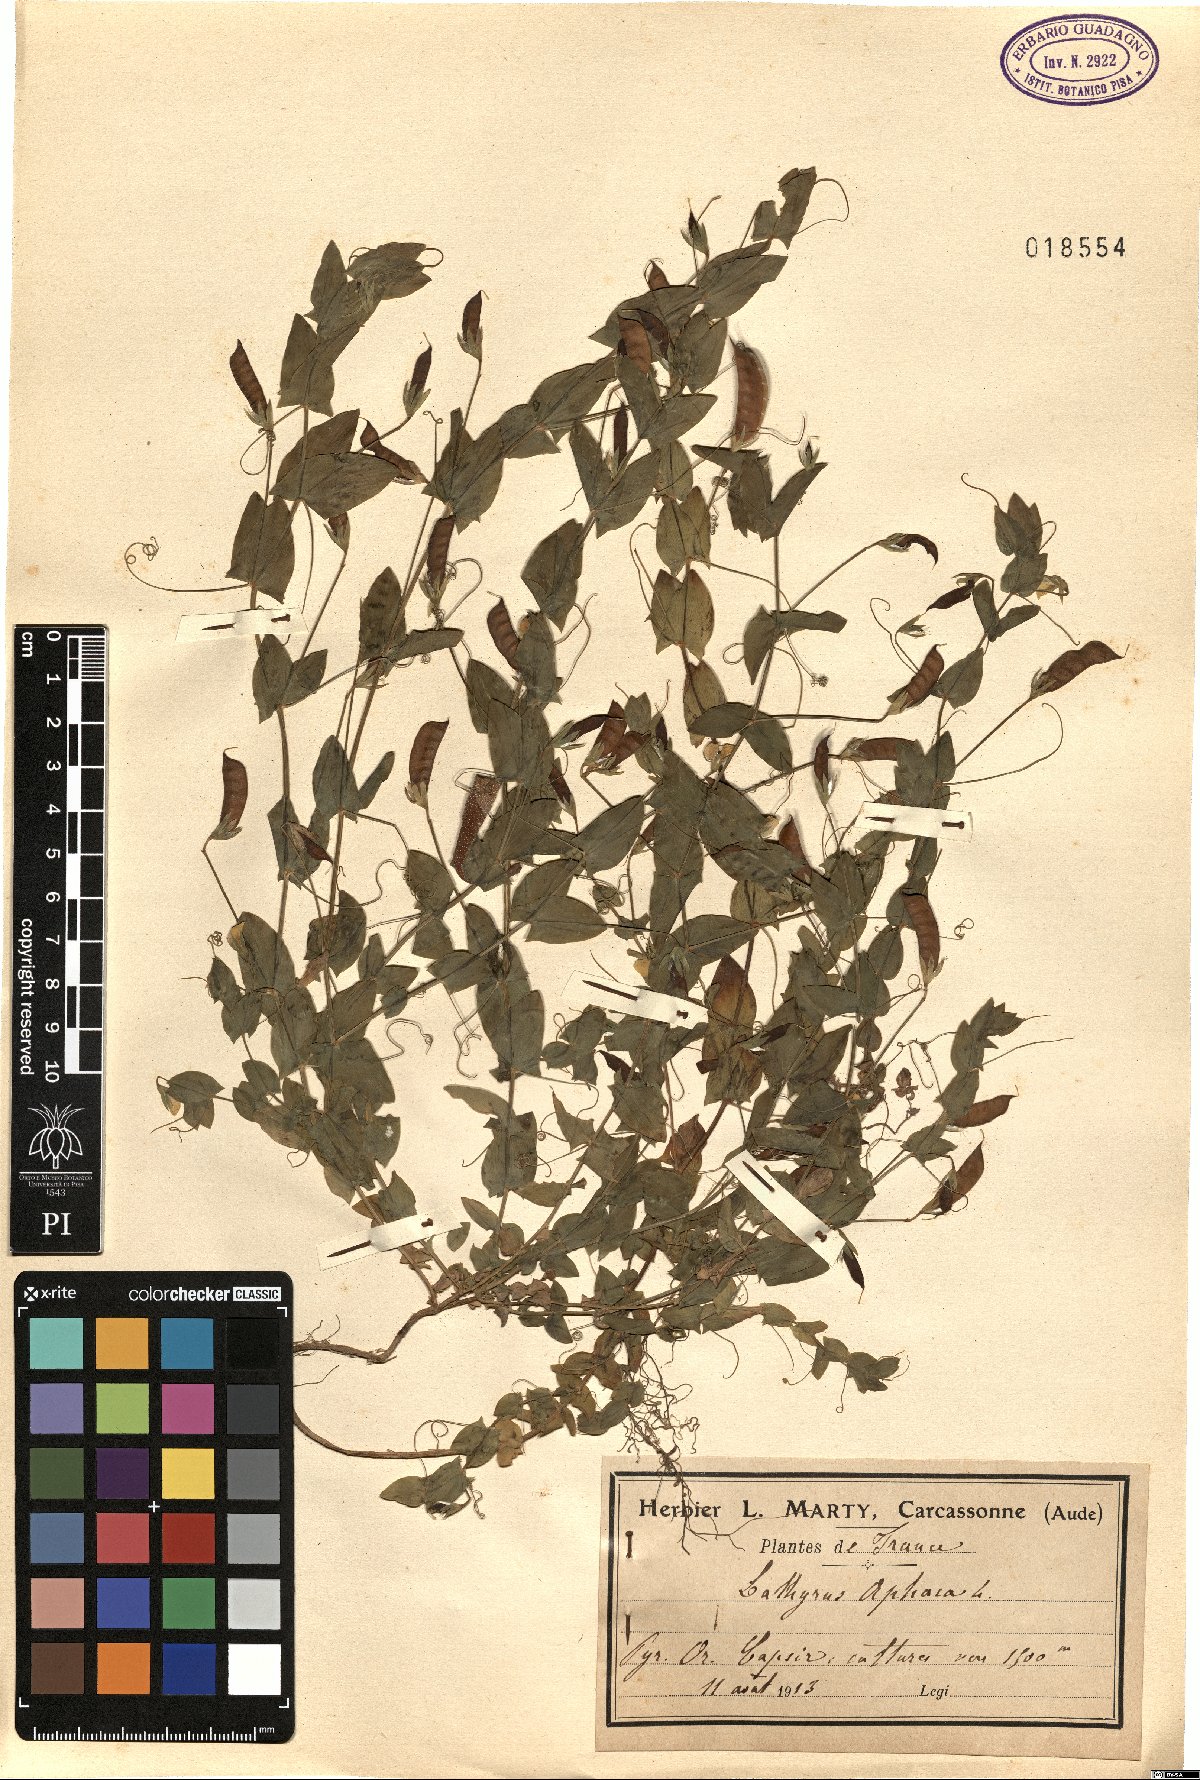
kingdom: Plantae
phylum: Tracheophyta
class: Magnoliopsida
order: Fabales
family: Fabaceae
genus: Lathyrus
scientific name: Lathyrus aphaca
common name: Yellow vetchling
